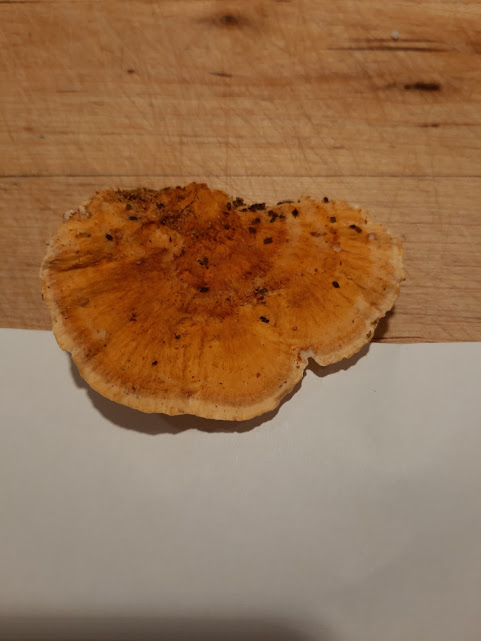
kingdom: Fungi
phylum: Basidiomycota
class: Agaricomycetes
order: Polyporales
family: Pycnoporellaceae
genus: Pycnoporellus
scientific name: Pycnoporellus fulgens
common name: flammeporesvamp
